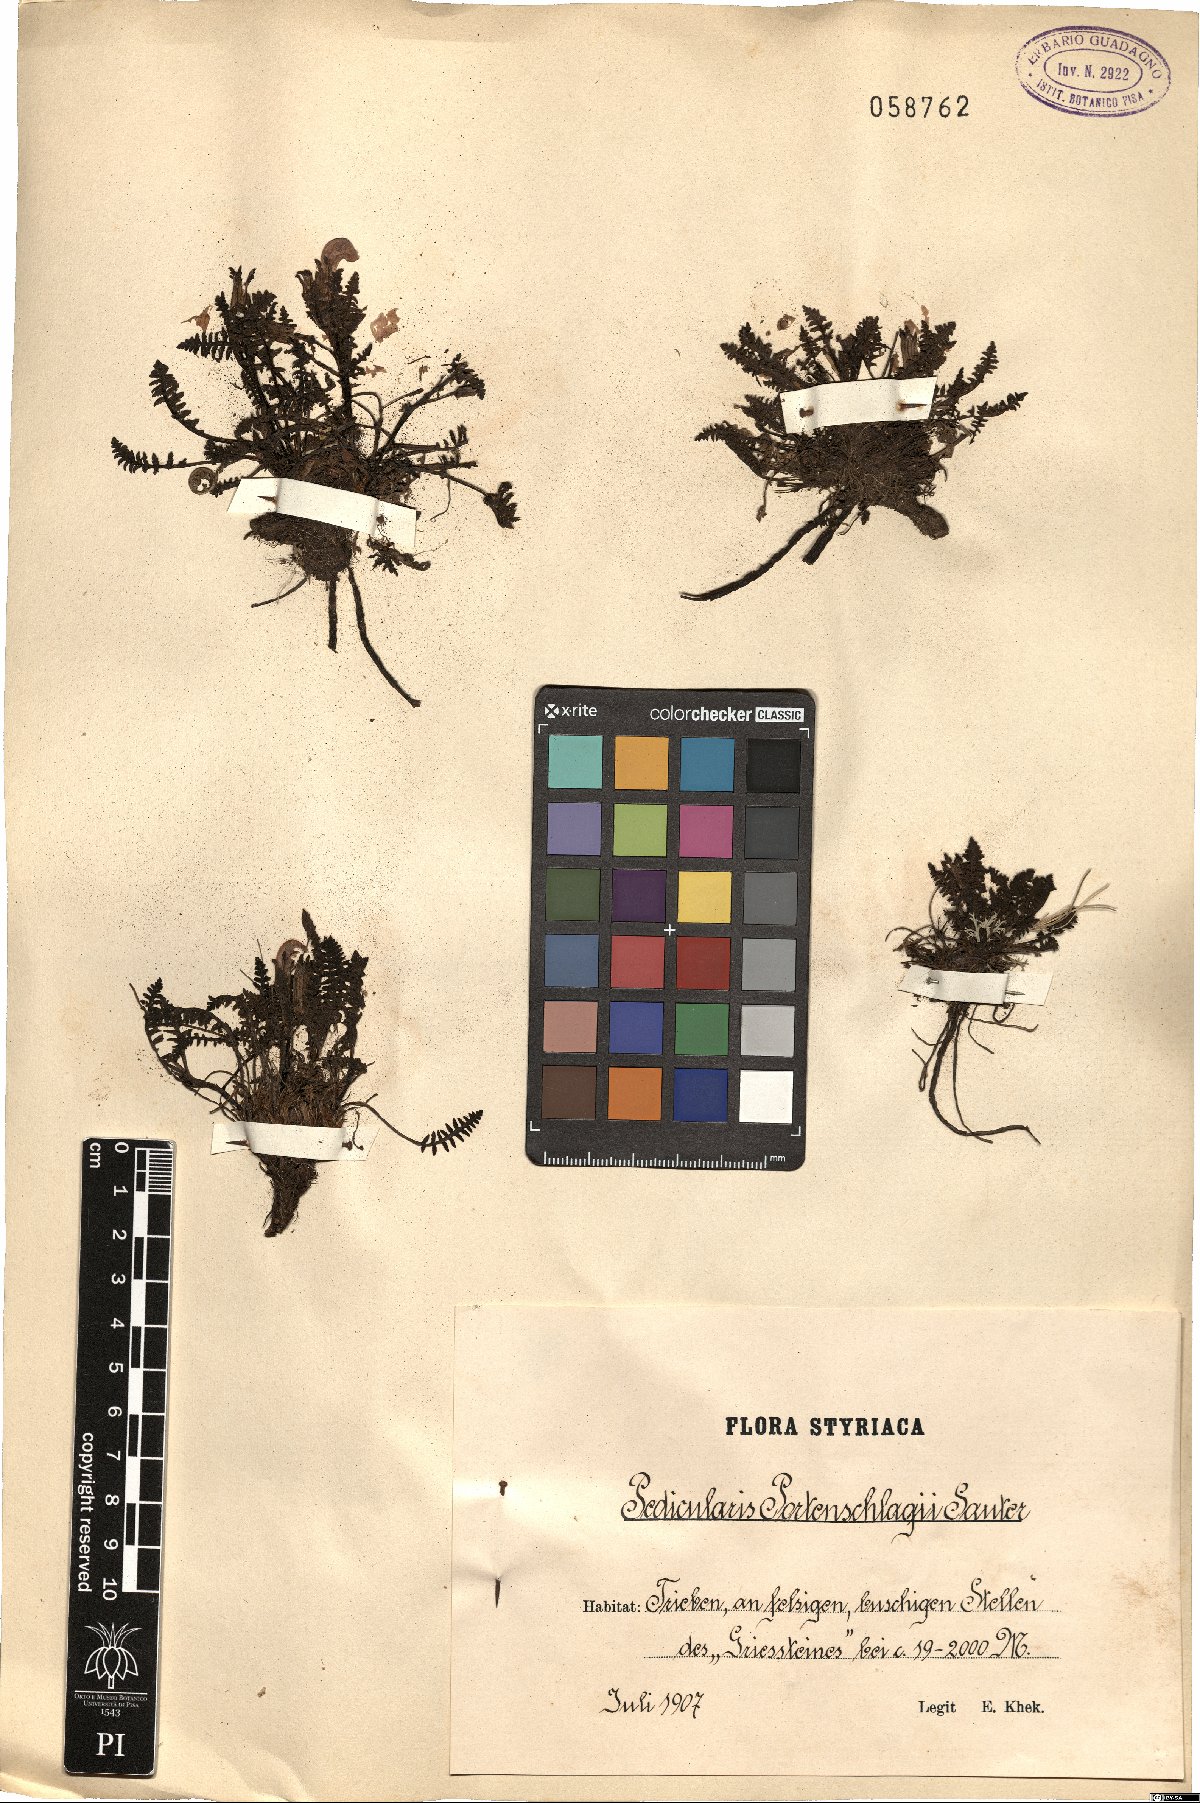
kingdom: Plantae
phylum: Tracheophyta
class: Magnoliopsida
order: Lamiales
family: Orobanchaceae
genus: Pedicularis
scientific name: Pedicularis portenschlagii
